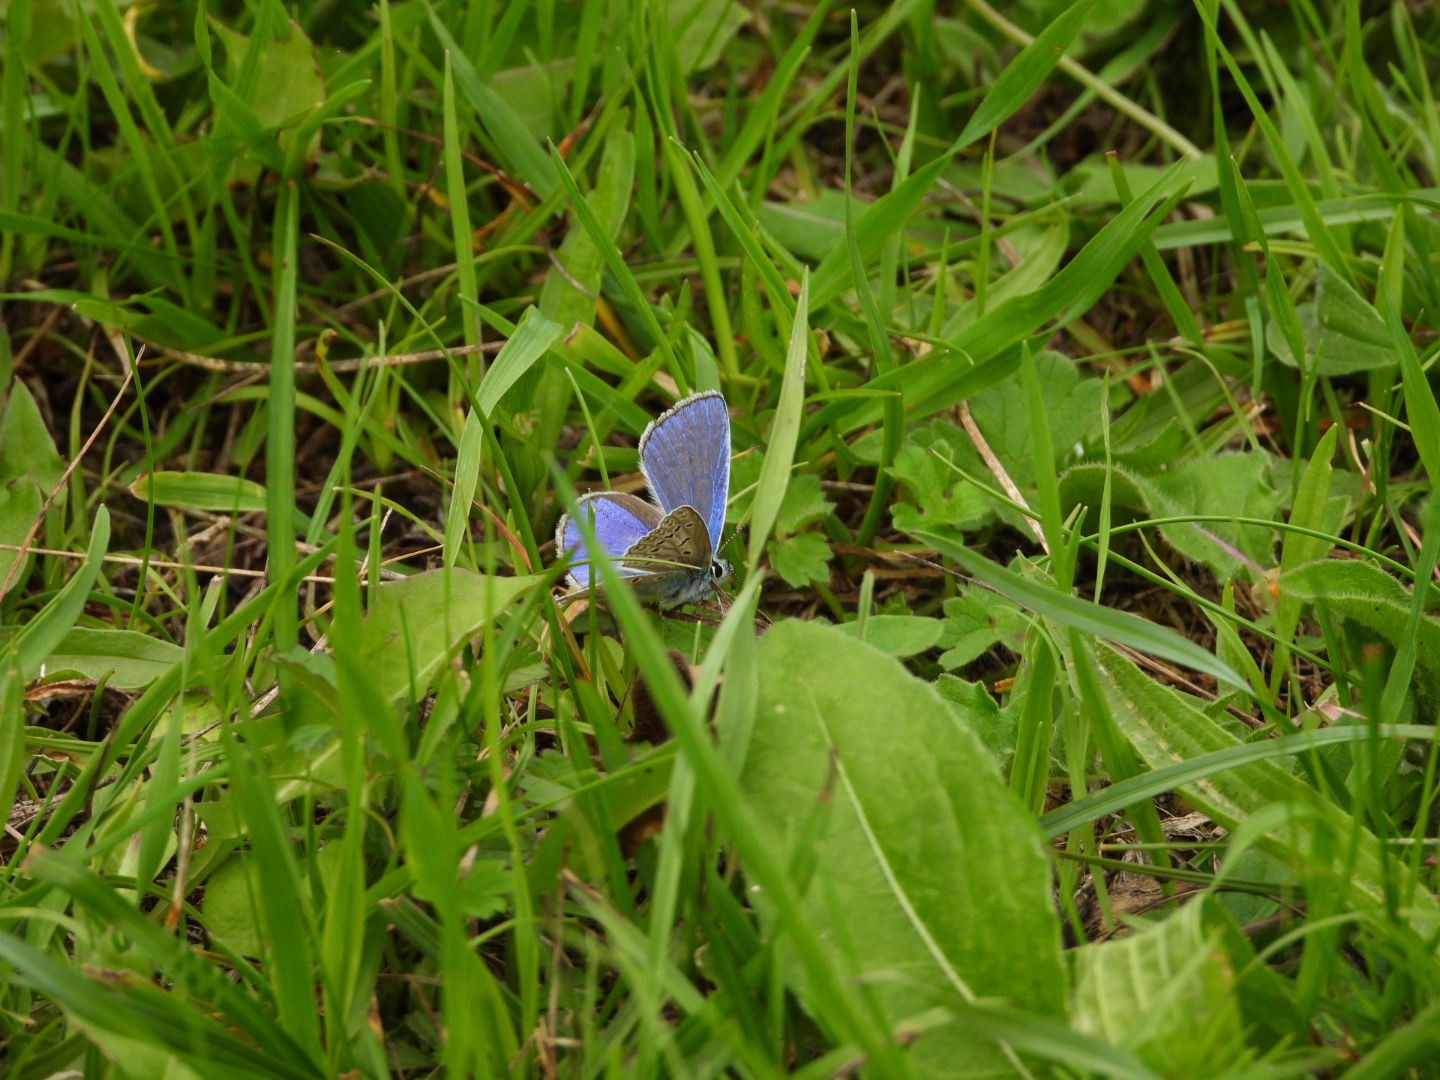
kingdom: Animalia
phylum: Arthropoda
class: Insecta
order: Lepidoptera
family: Lycaenidae
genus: Polyommatus
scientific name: Polyommatus icarus
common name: Almindelig blåfugl
